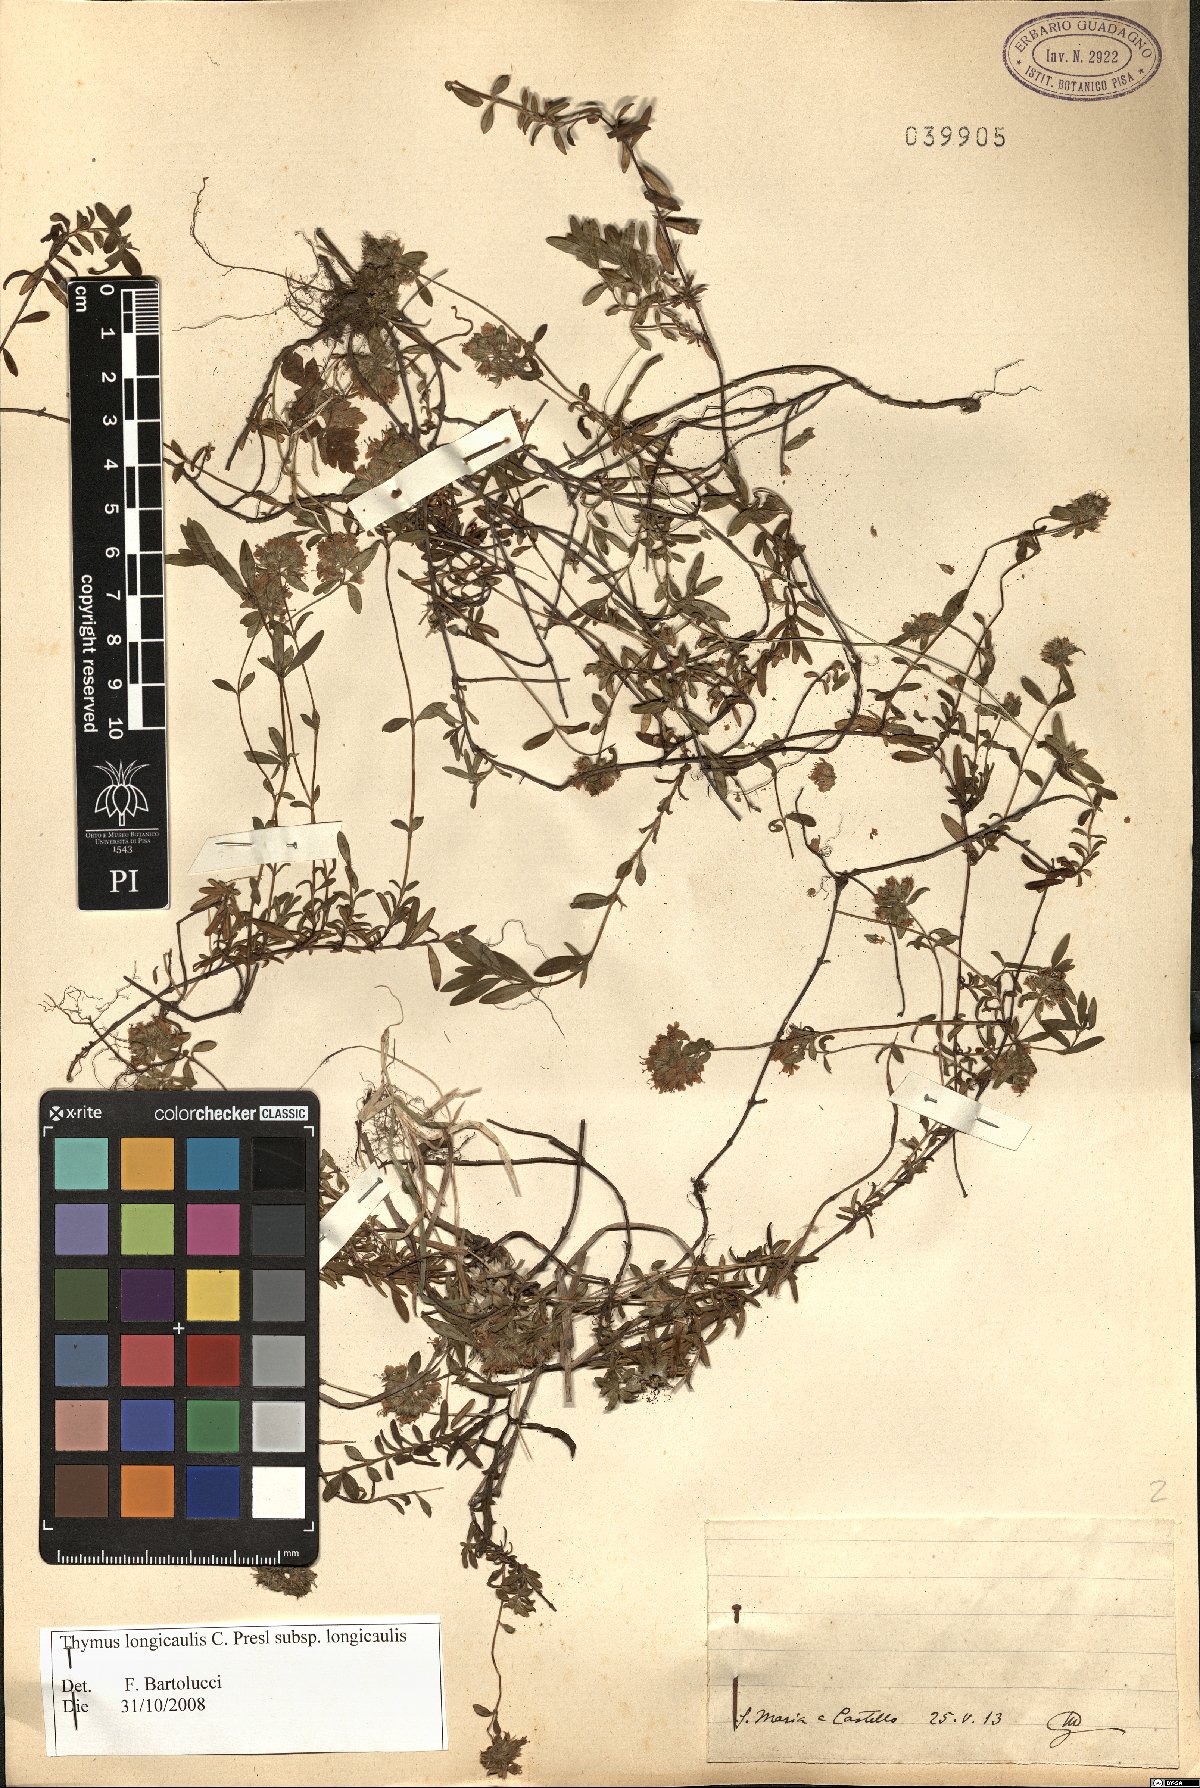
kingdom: Plantae
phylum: Tracheophyta
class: Magnoliopsida
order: Lamiales
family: Lamiaceae
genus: Thymus
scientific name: Thymus longicaulis
